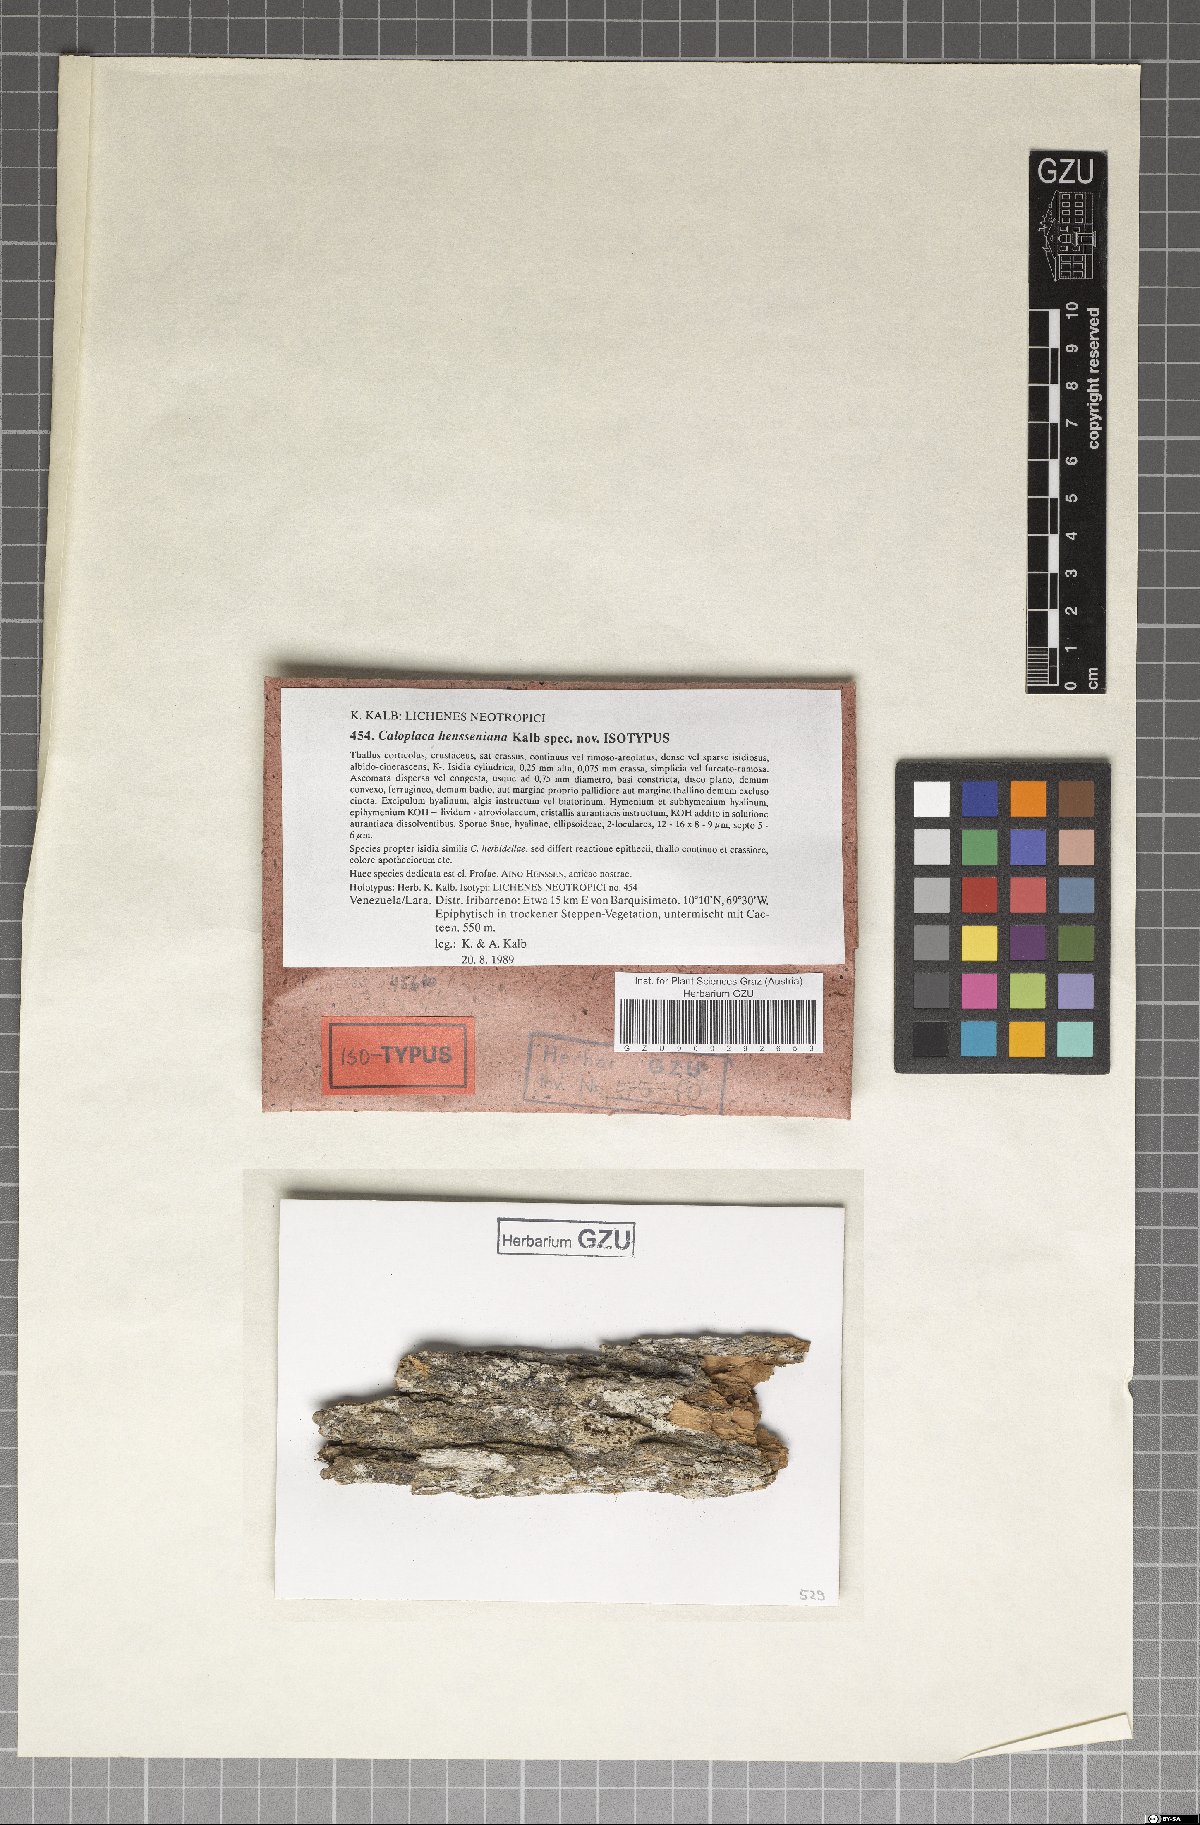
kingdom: Fungi
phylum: Ascomycota
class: Lecanoromycetes
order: Teloschistales
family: Teloschistaceae
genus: Caloplaca
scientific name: Caloplaca hensseniana
